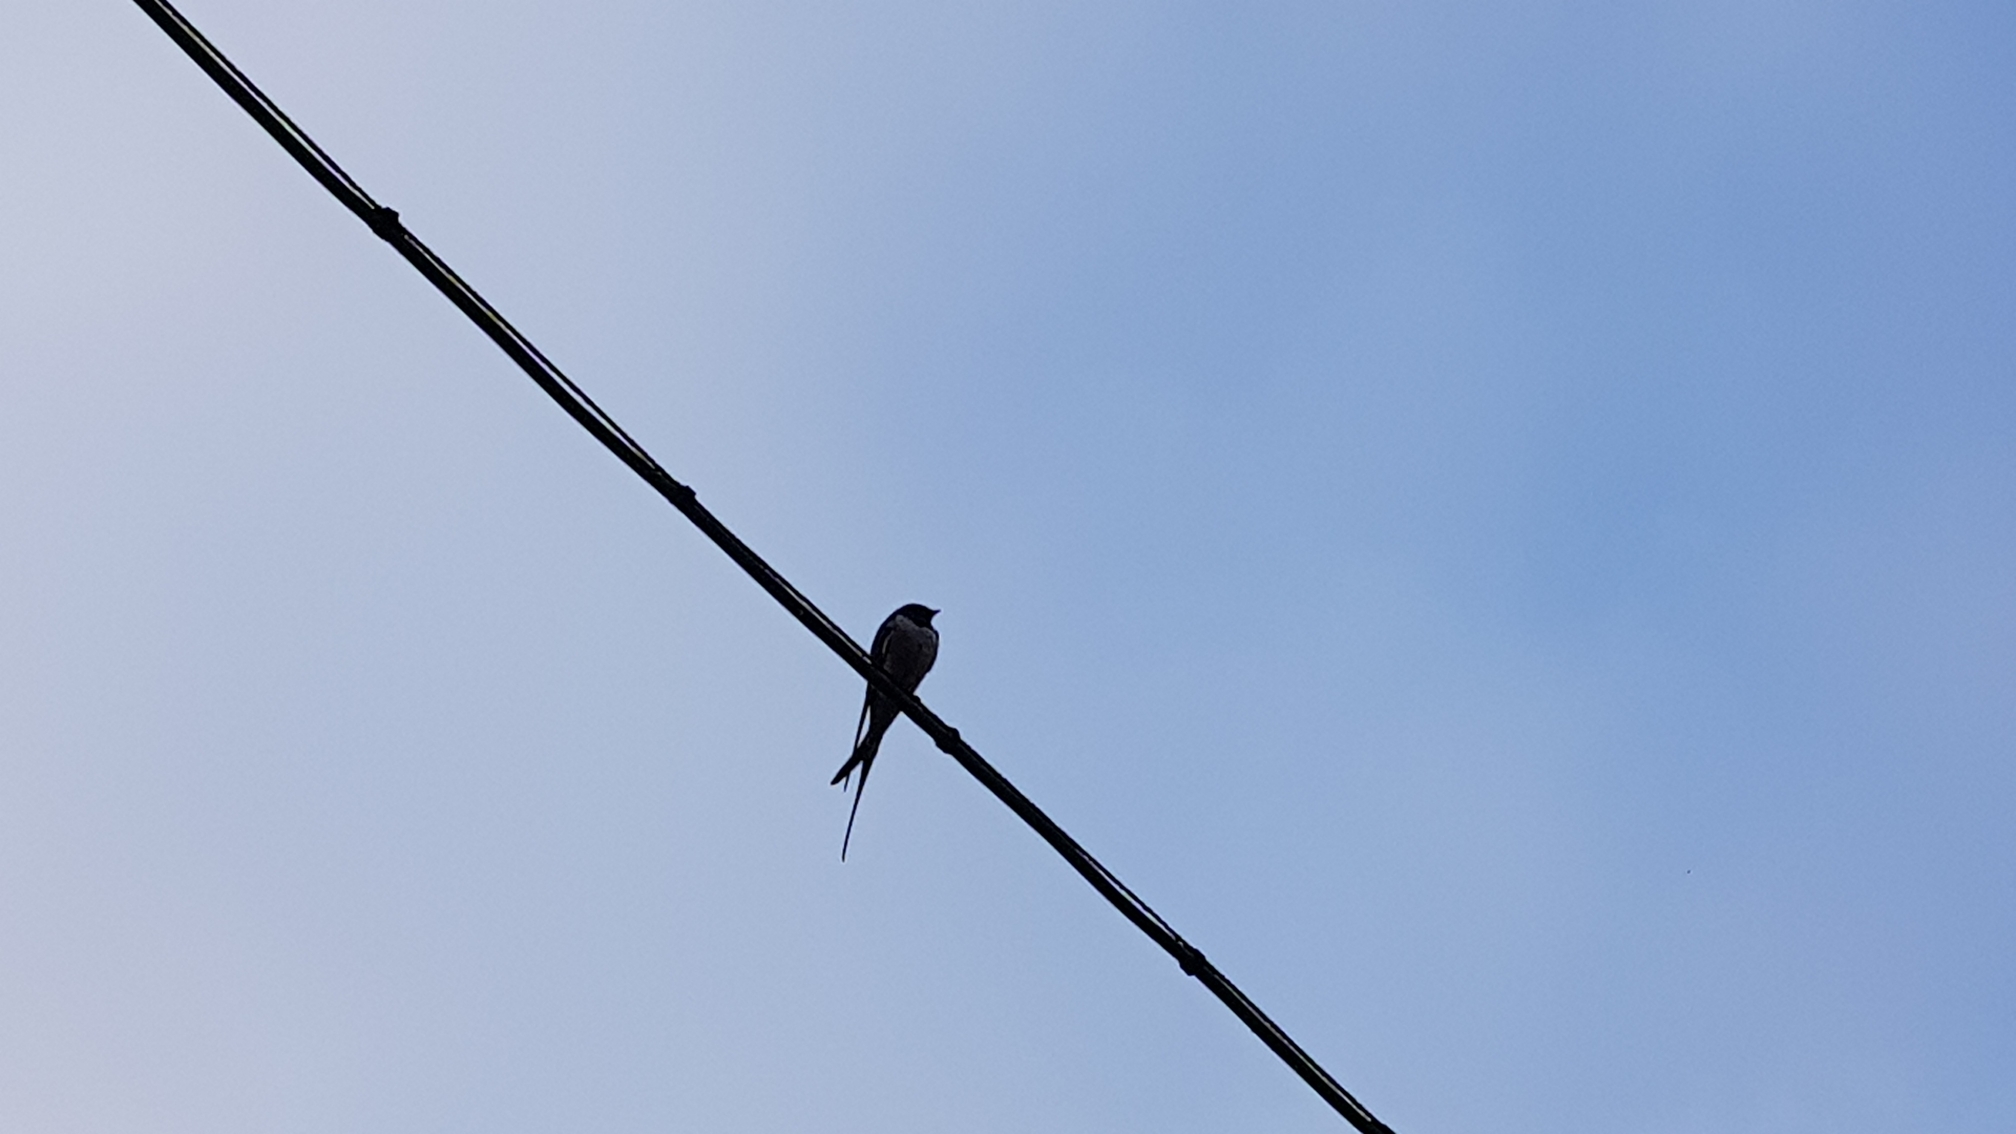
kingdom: Animalia
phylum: Chordata
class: Aves
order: Passeriformes
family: Hirundinidae
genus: Hirundo
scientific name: Hirundo rustica
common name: Landsvale
